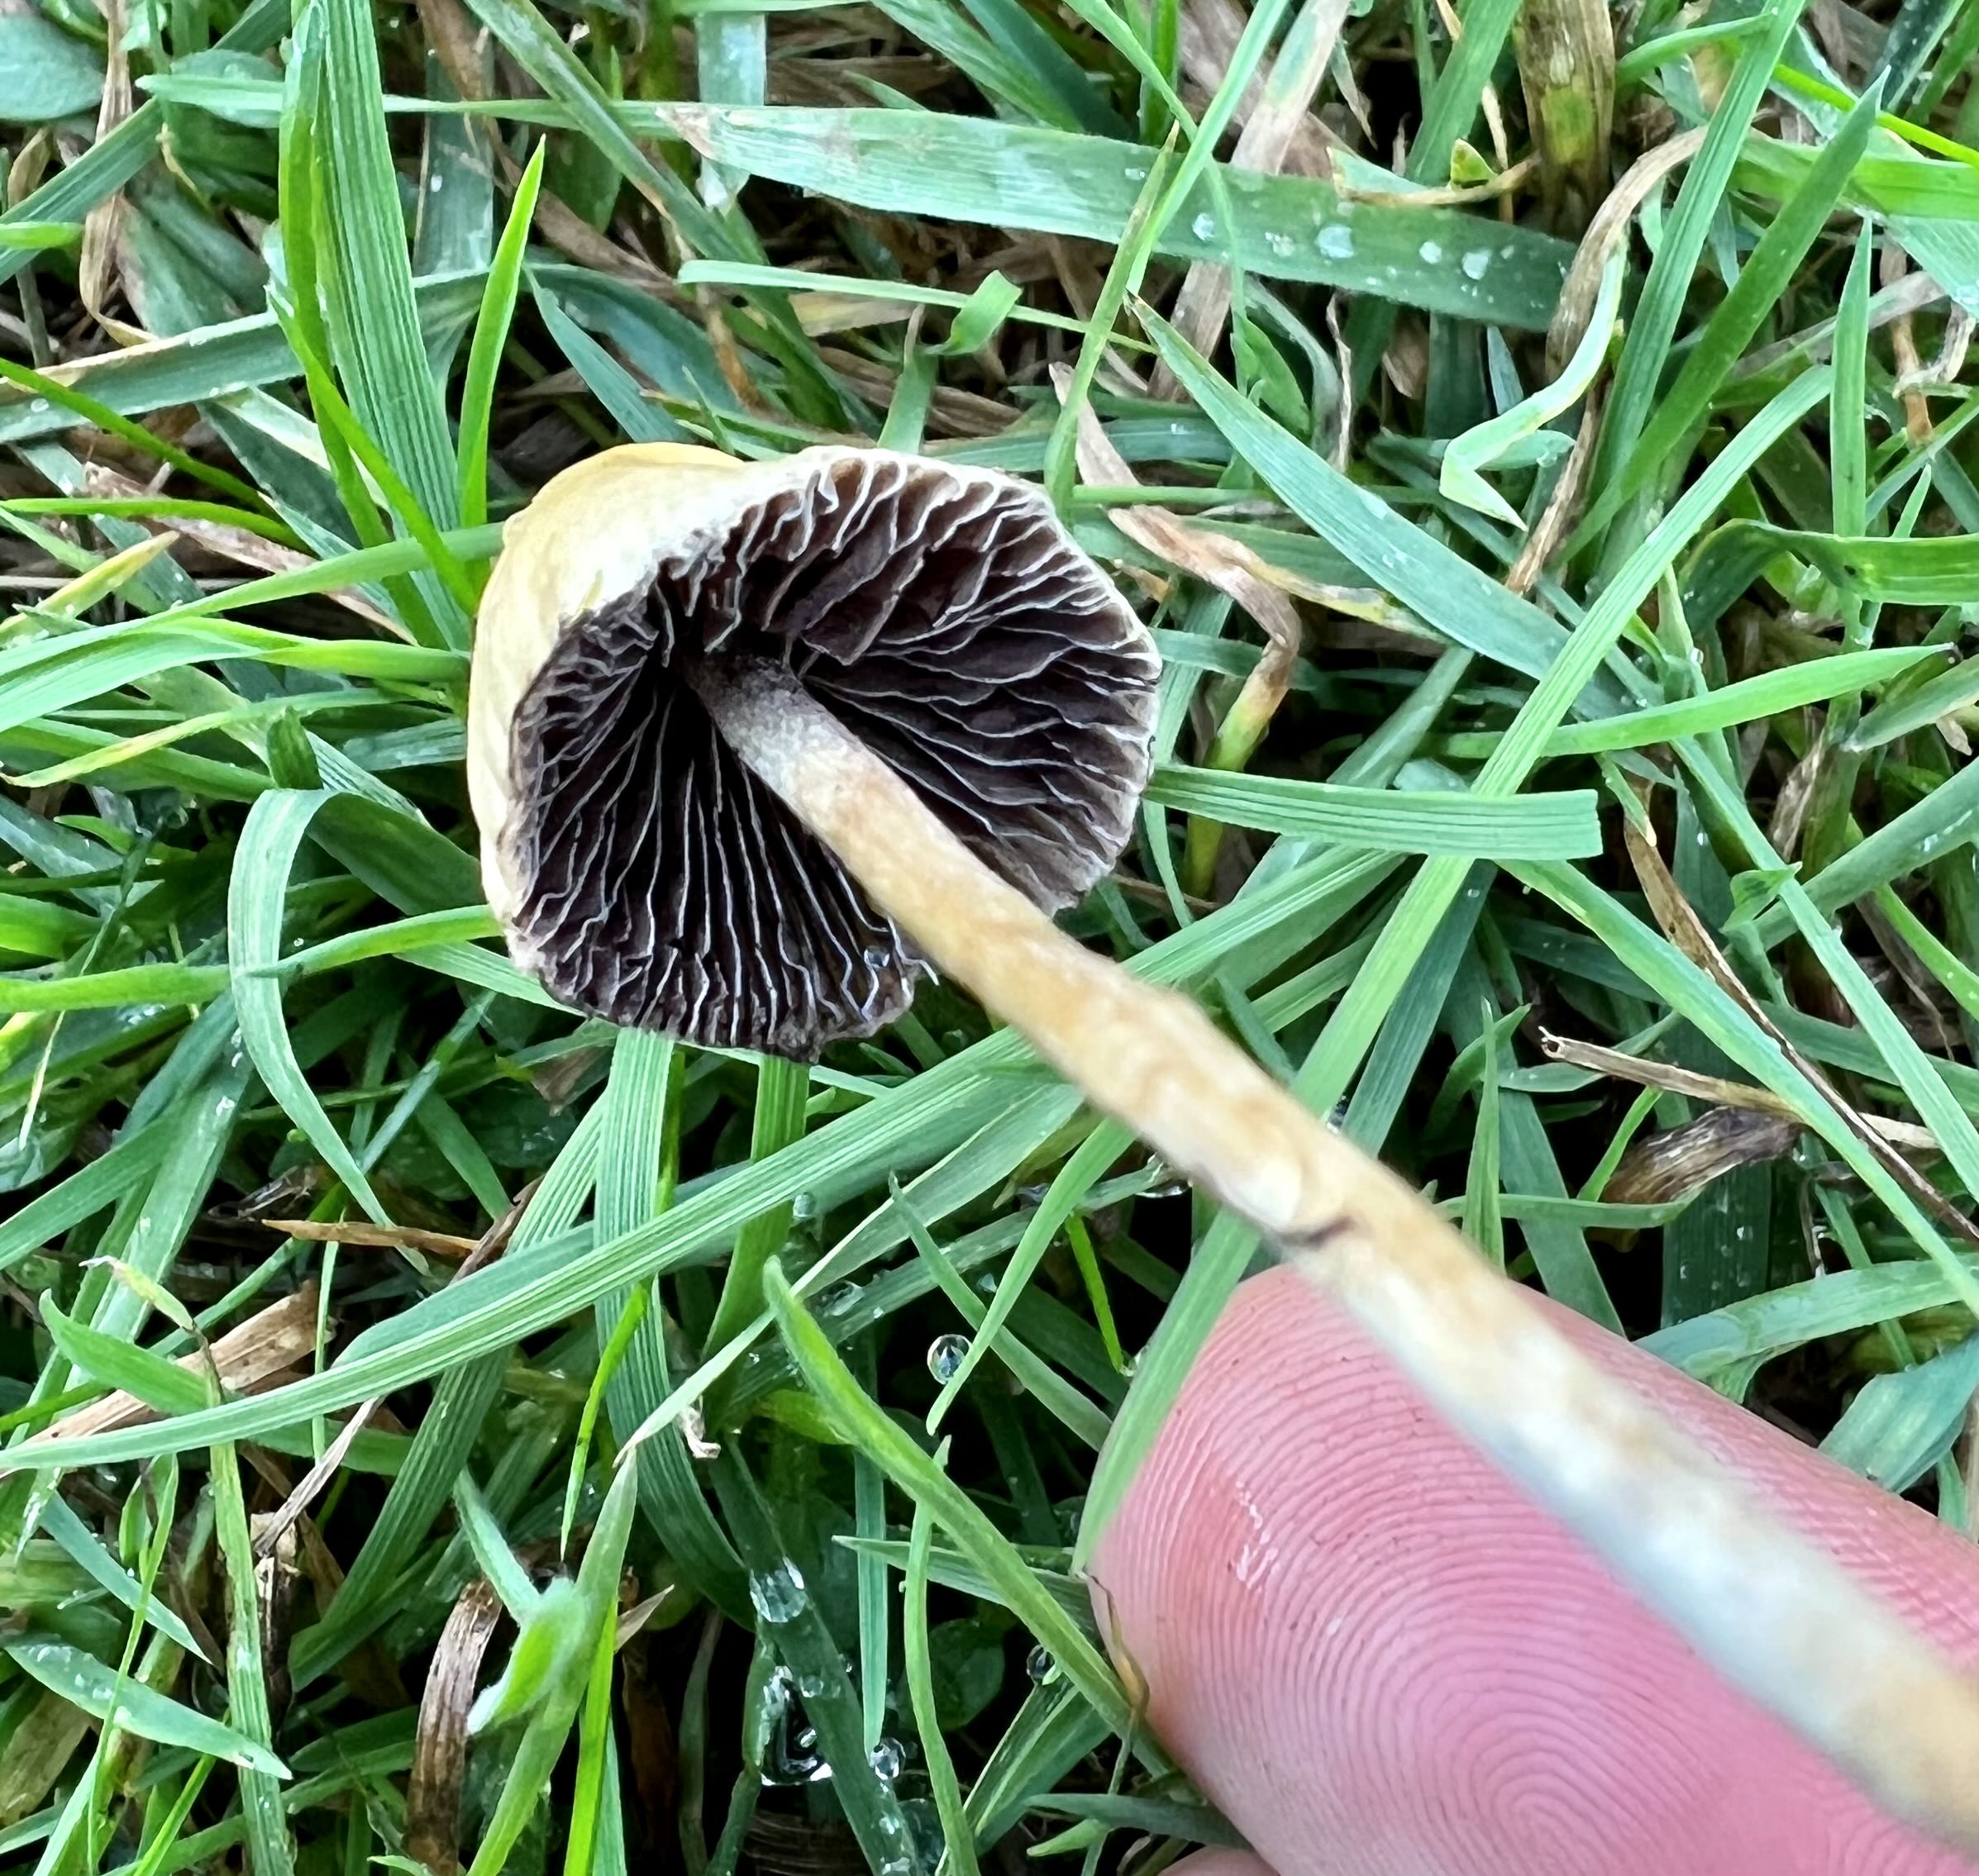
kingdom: Fungi
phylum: Basidiomycota
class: Agaricomycetes
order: Agaricales
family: Hymenogastraceae
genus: Psilocybe
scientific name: Psilocybe semilanceata
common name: spids nøgenhat
